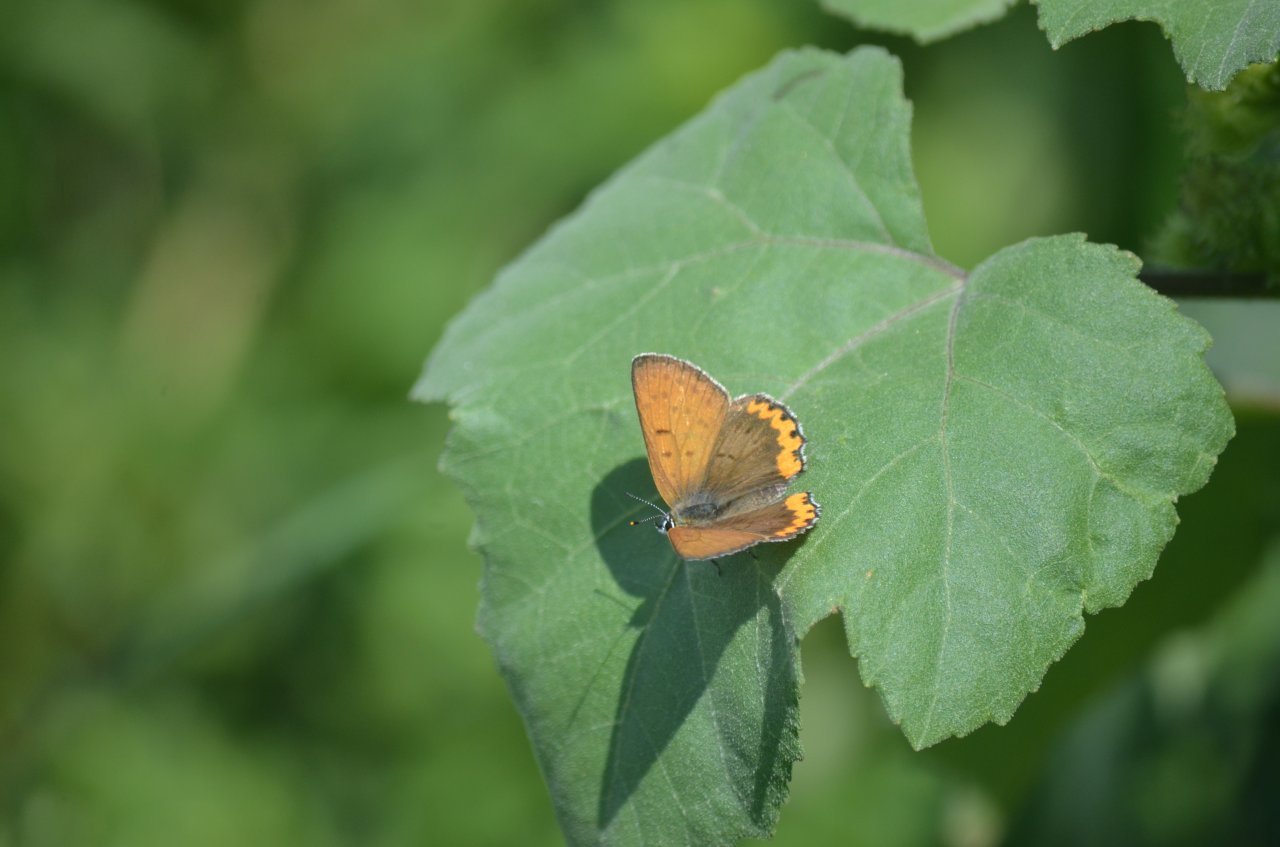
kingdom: Animalia
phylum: Arthropoda
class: Insecta
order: Lepidoptera
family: Sesiidae
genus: Sesia
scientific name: Sesia Lycaena hyllus
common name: Bronze Copper
